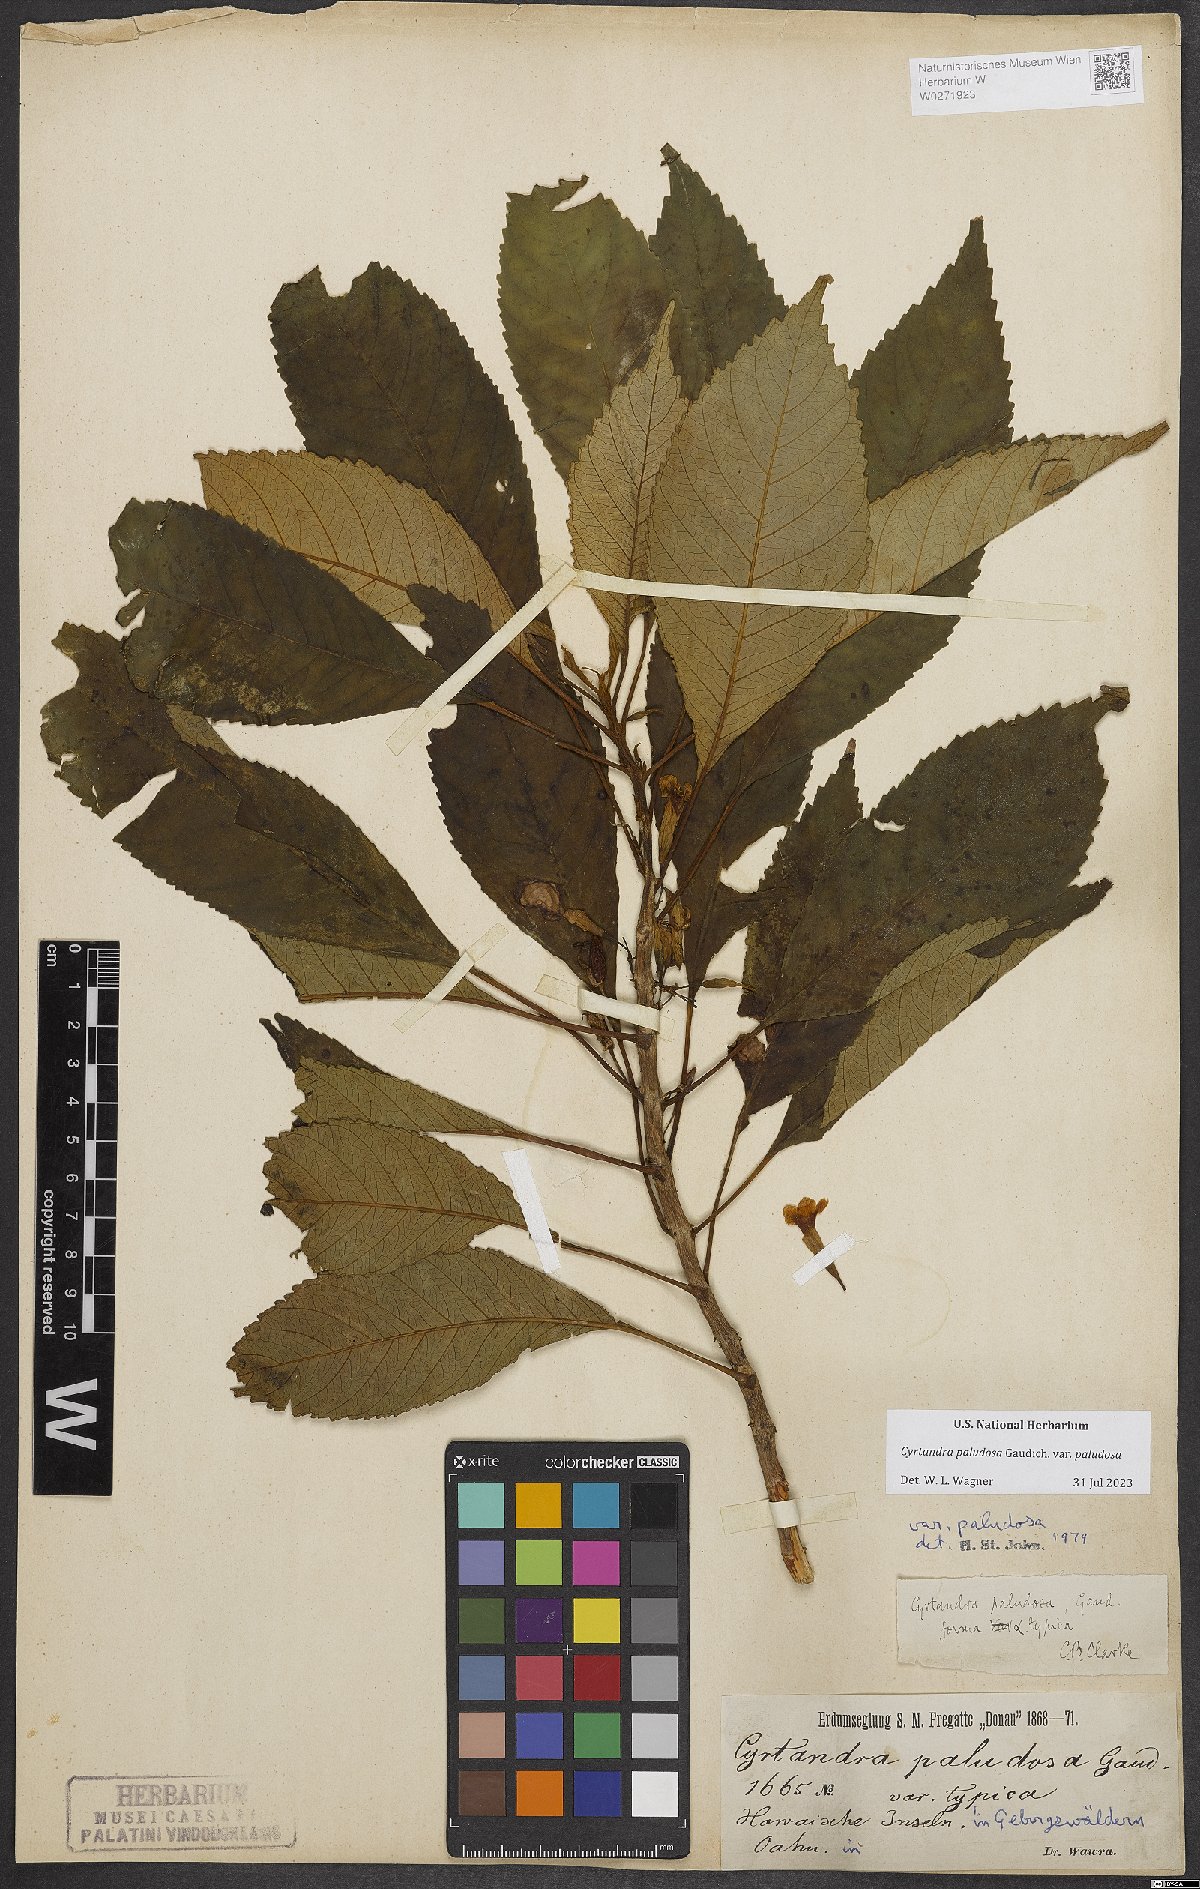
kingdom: Plantae
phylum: Tracheophyta
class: Magnoliopsida
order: Lamiales
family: Gesneriaceae
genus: Cyrtandra
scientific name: Cyrtandra paludosa
